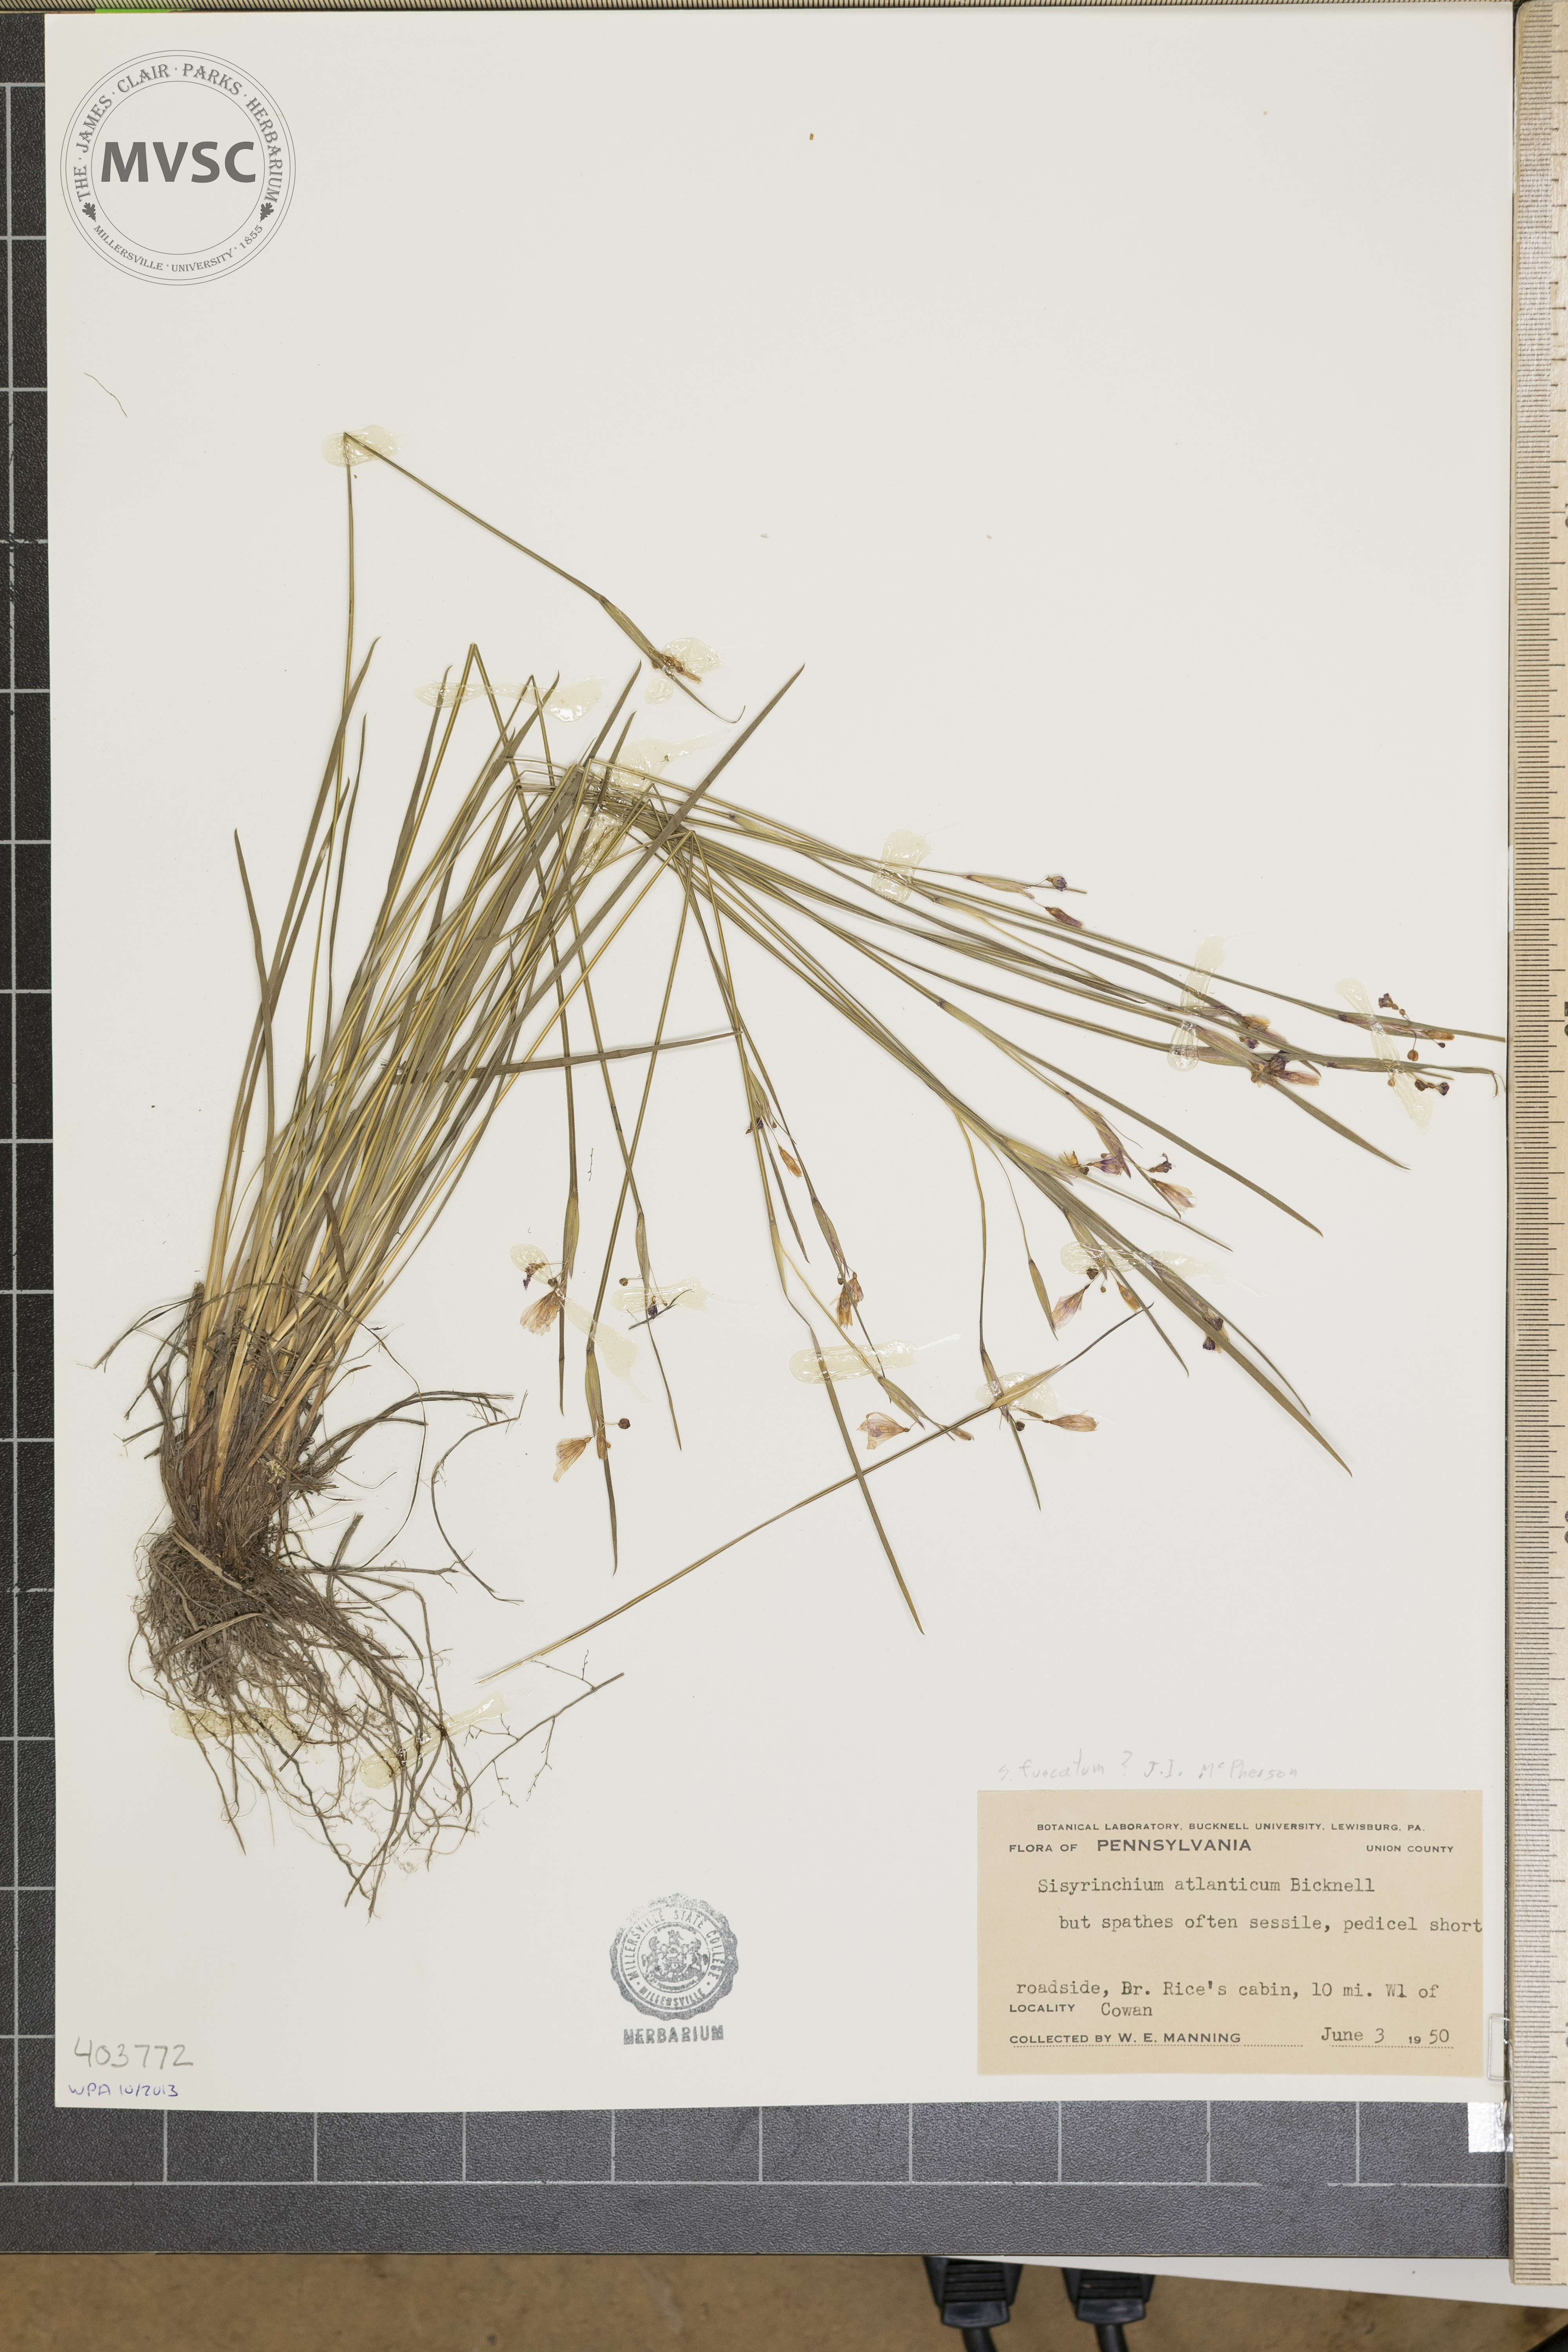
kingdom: Plantae
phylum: Tracheophyta
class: Liliopsida
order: Asparagales
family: Iridaceae
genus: Sisyrinchium
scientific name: Sisyrinchium atlanticum
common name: Eastern blue-eyed-grass
